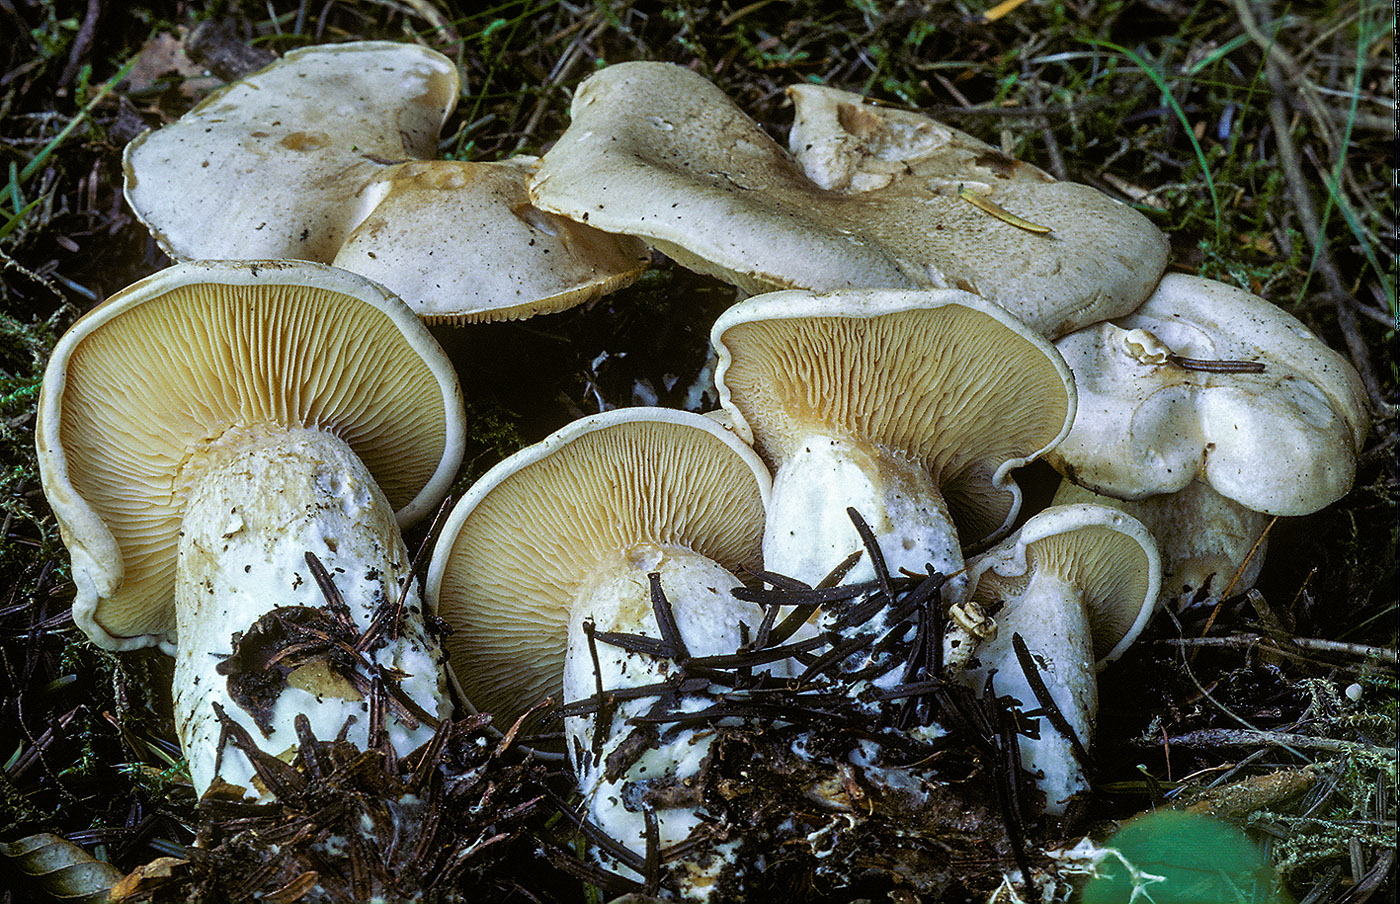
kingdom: Fungi
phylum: Basidiomycota
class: Agaricomycetes
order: Agaricales
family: Pseudoclitocybaceae
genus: Clitopaxillus
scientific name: Clitopaxillus fibulatus
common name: bestøvlet tragthat
